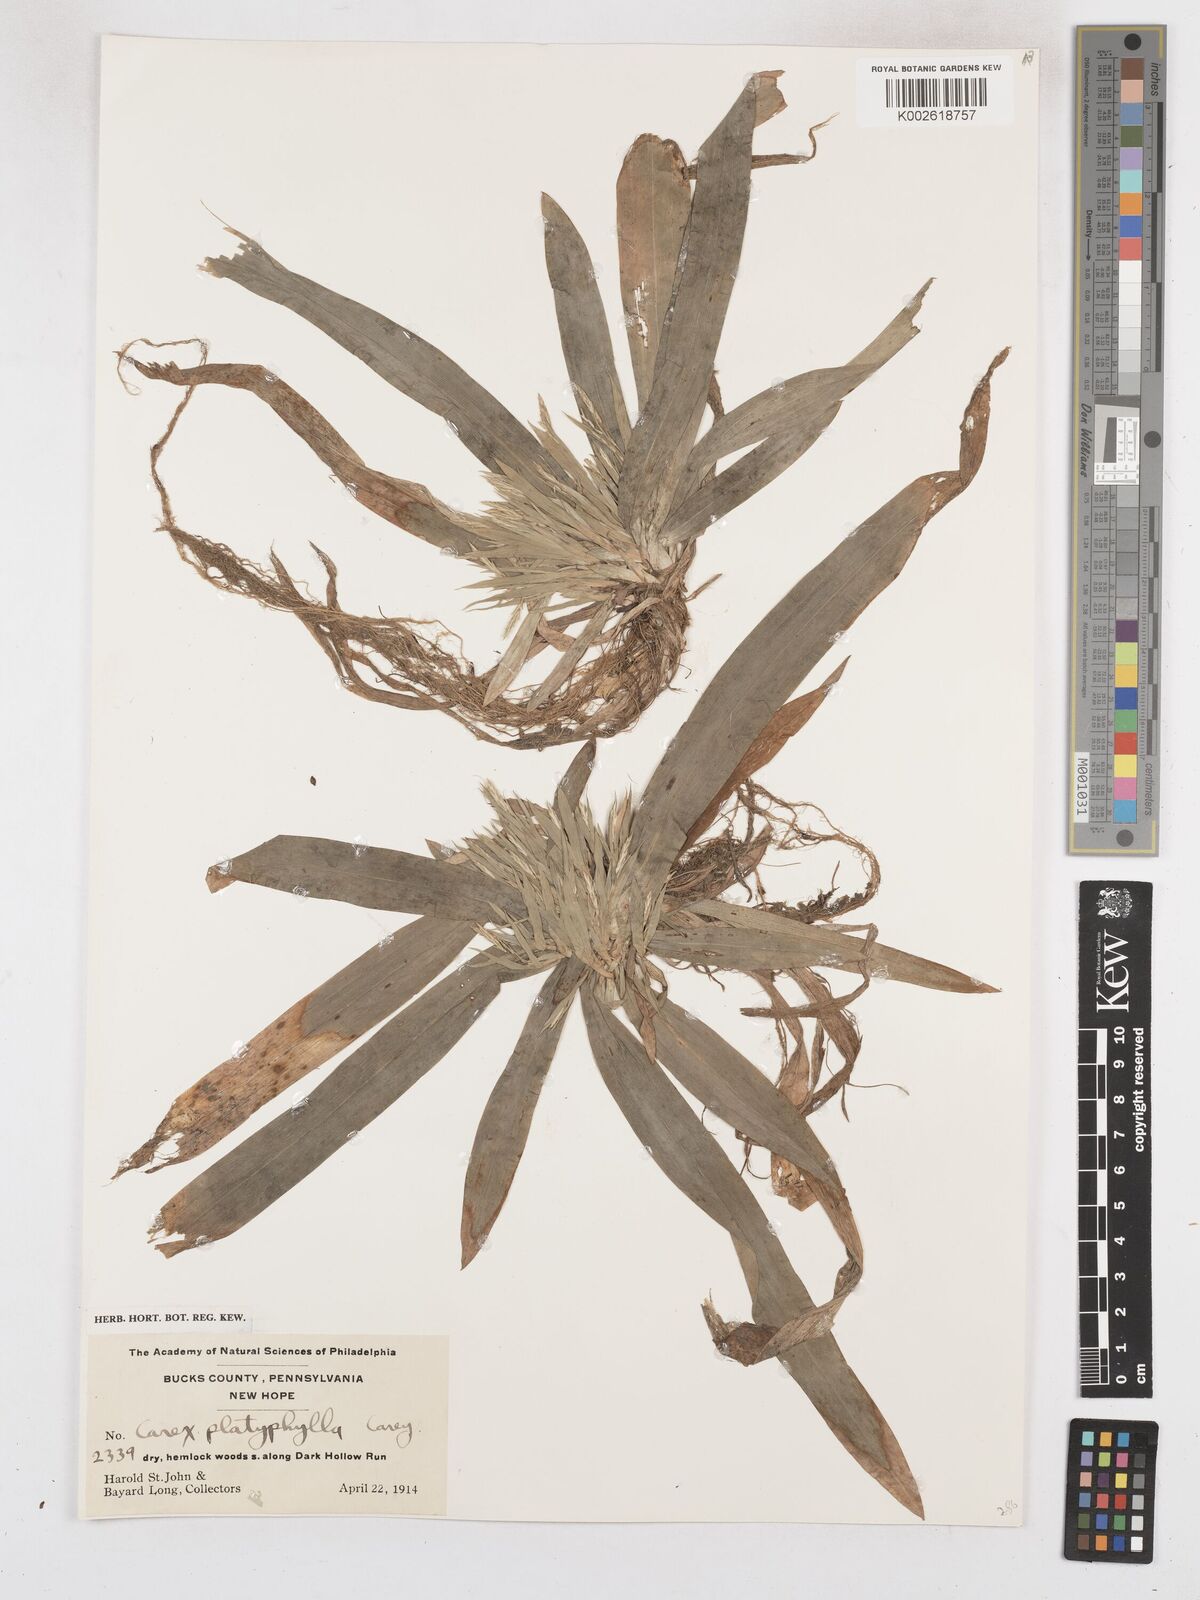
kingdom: Plantae
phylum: Tracheophyta
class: Liliopsida
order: Poales
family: Cyperaceae
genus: Carex
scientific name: Carex platyphylla
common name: Broad-leaved sedge
